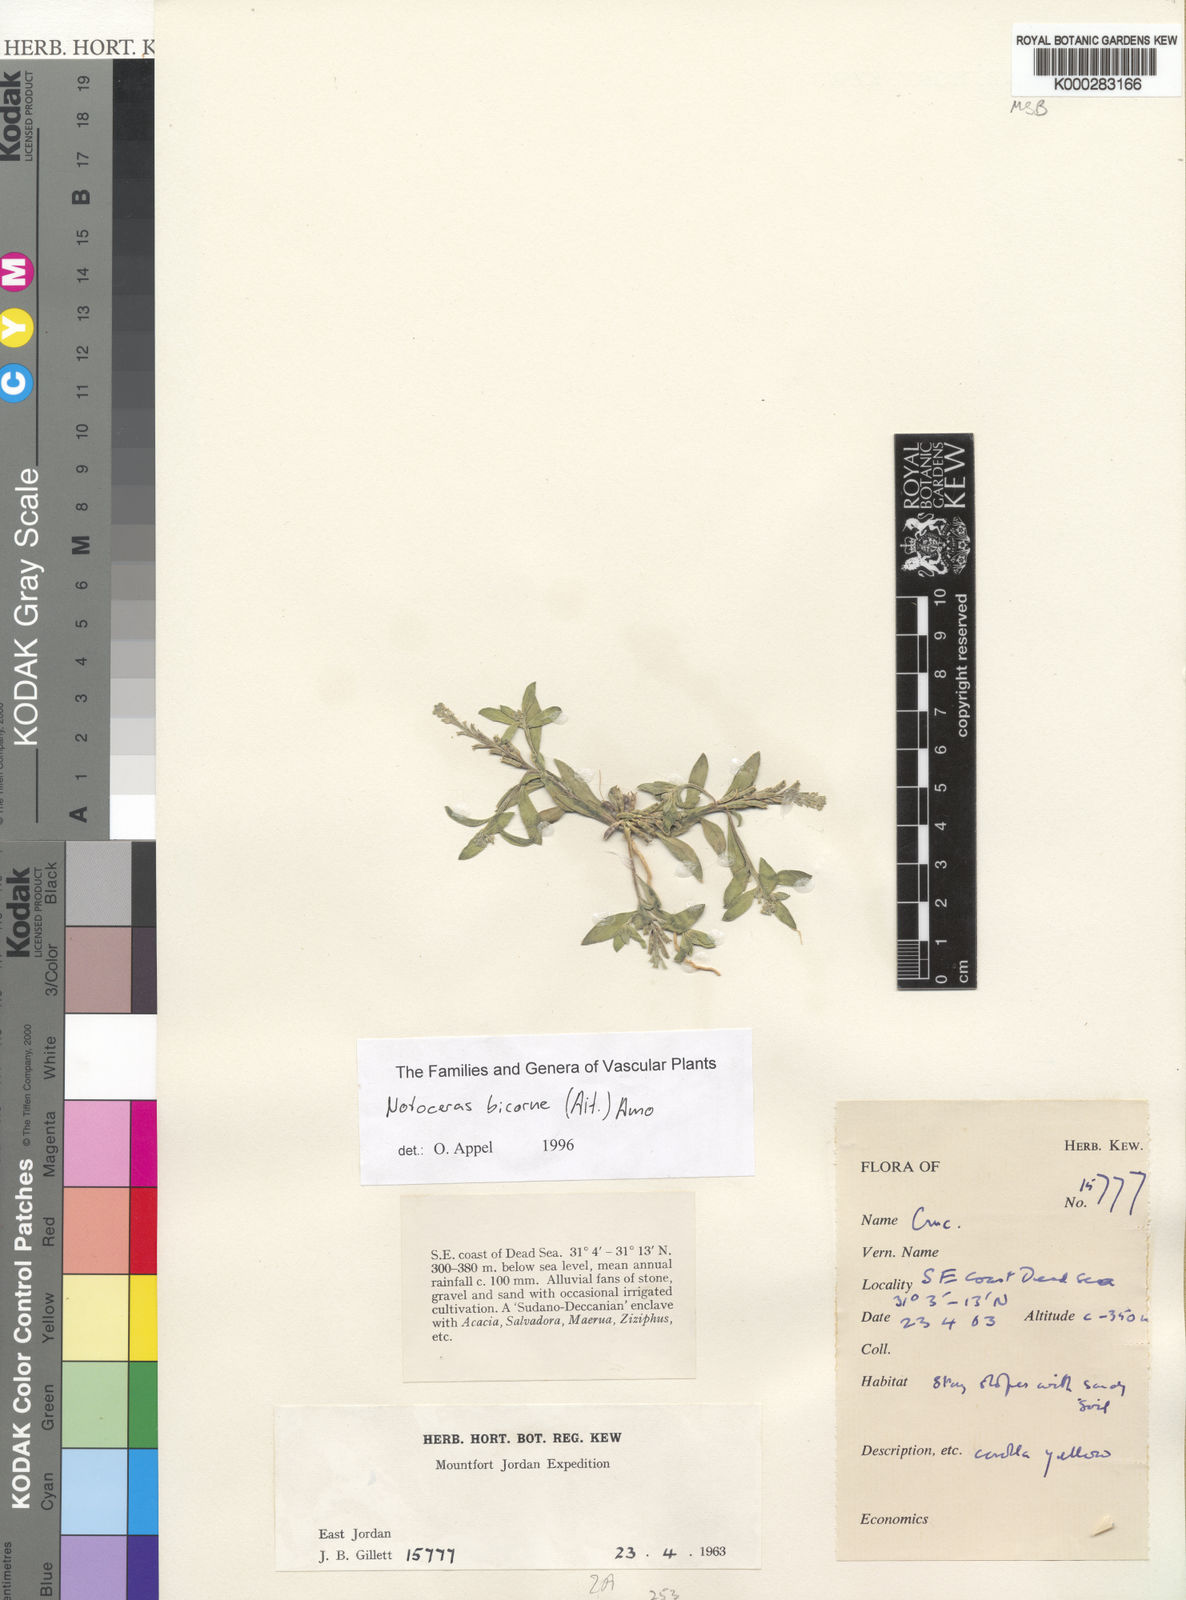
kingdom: Plantae
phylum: Tracheophyta
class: Magnoliopsida
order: Brassicales
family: Brassicaceae
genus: Notoceras
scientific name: Notoceras bicorne
